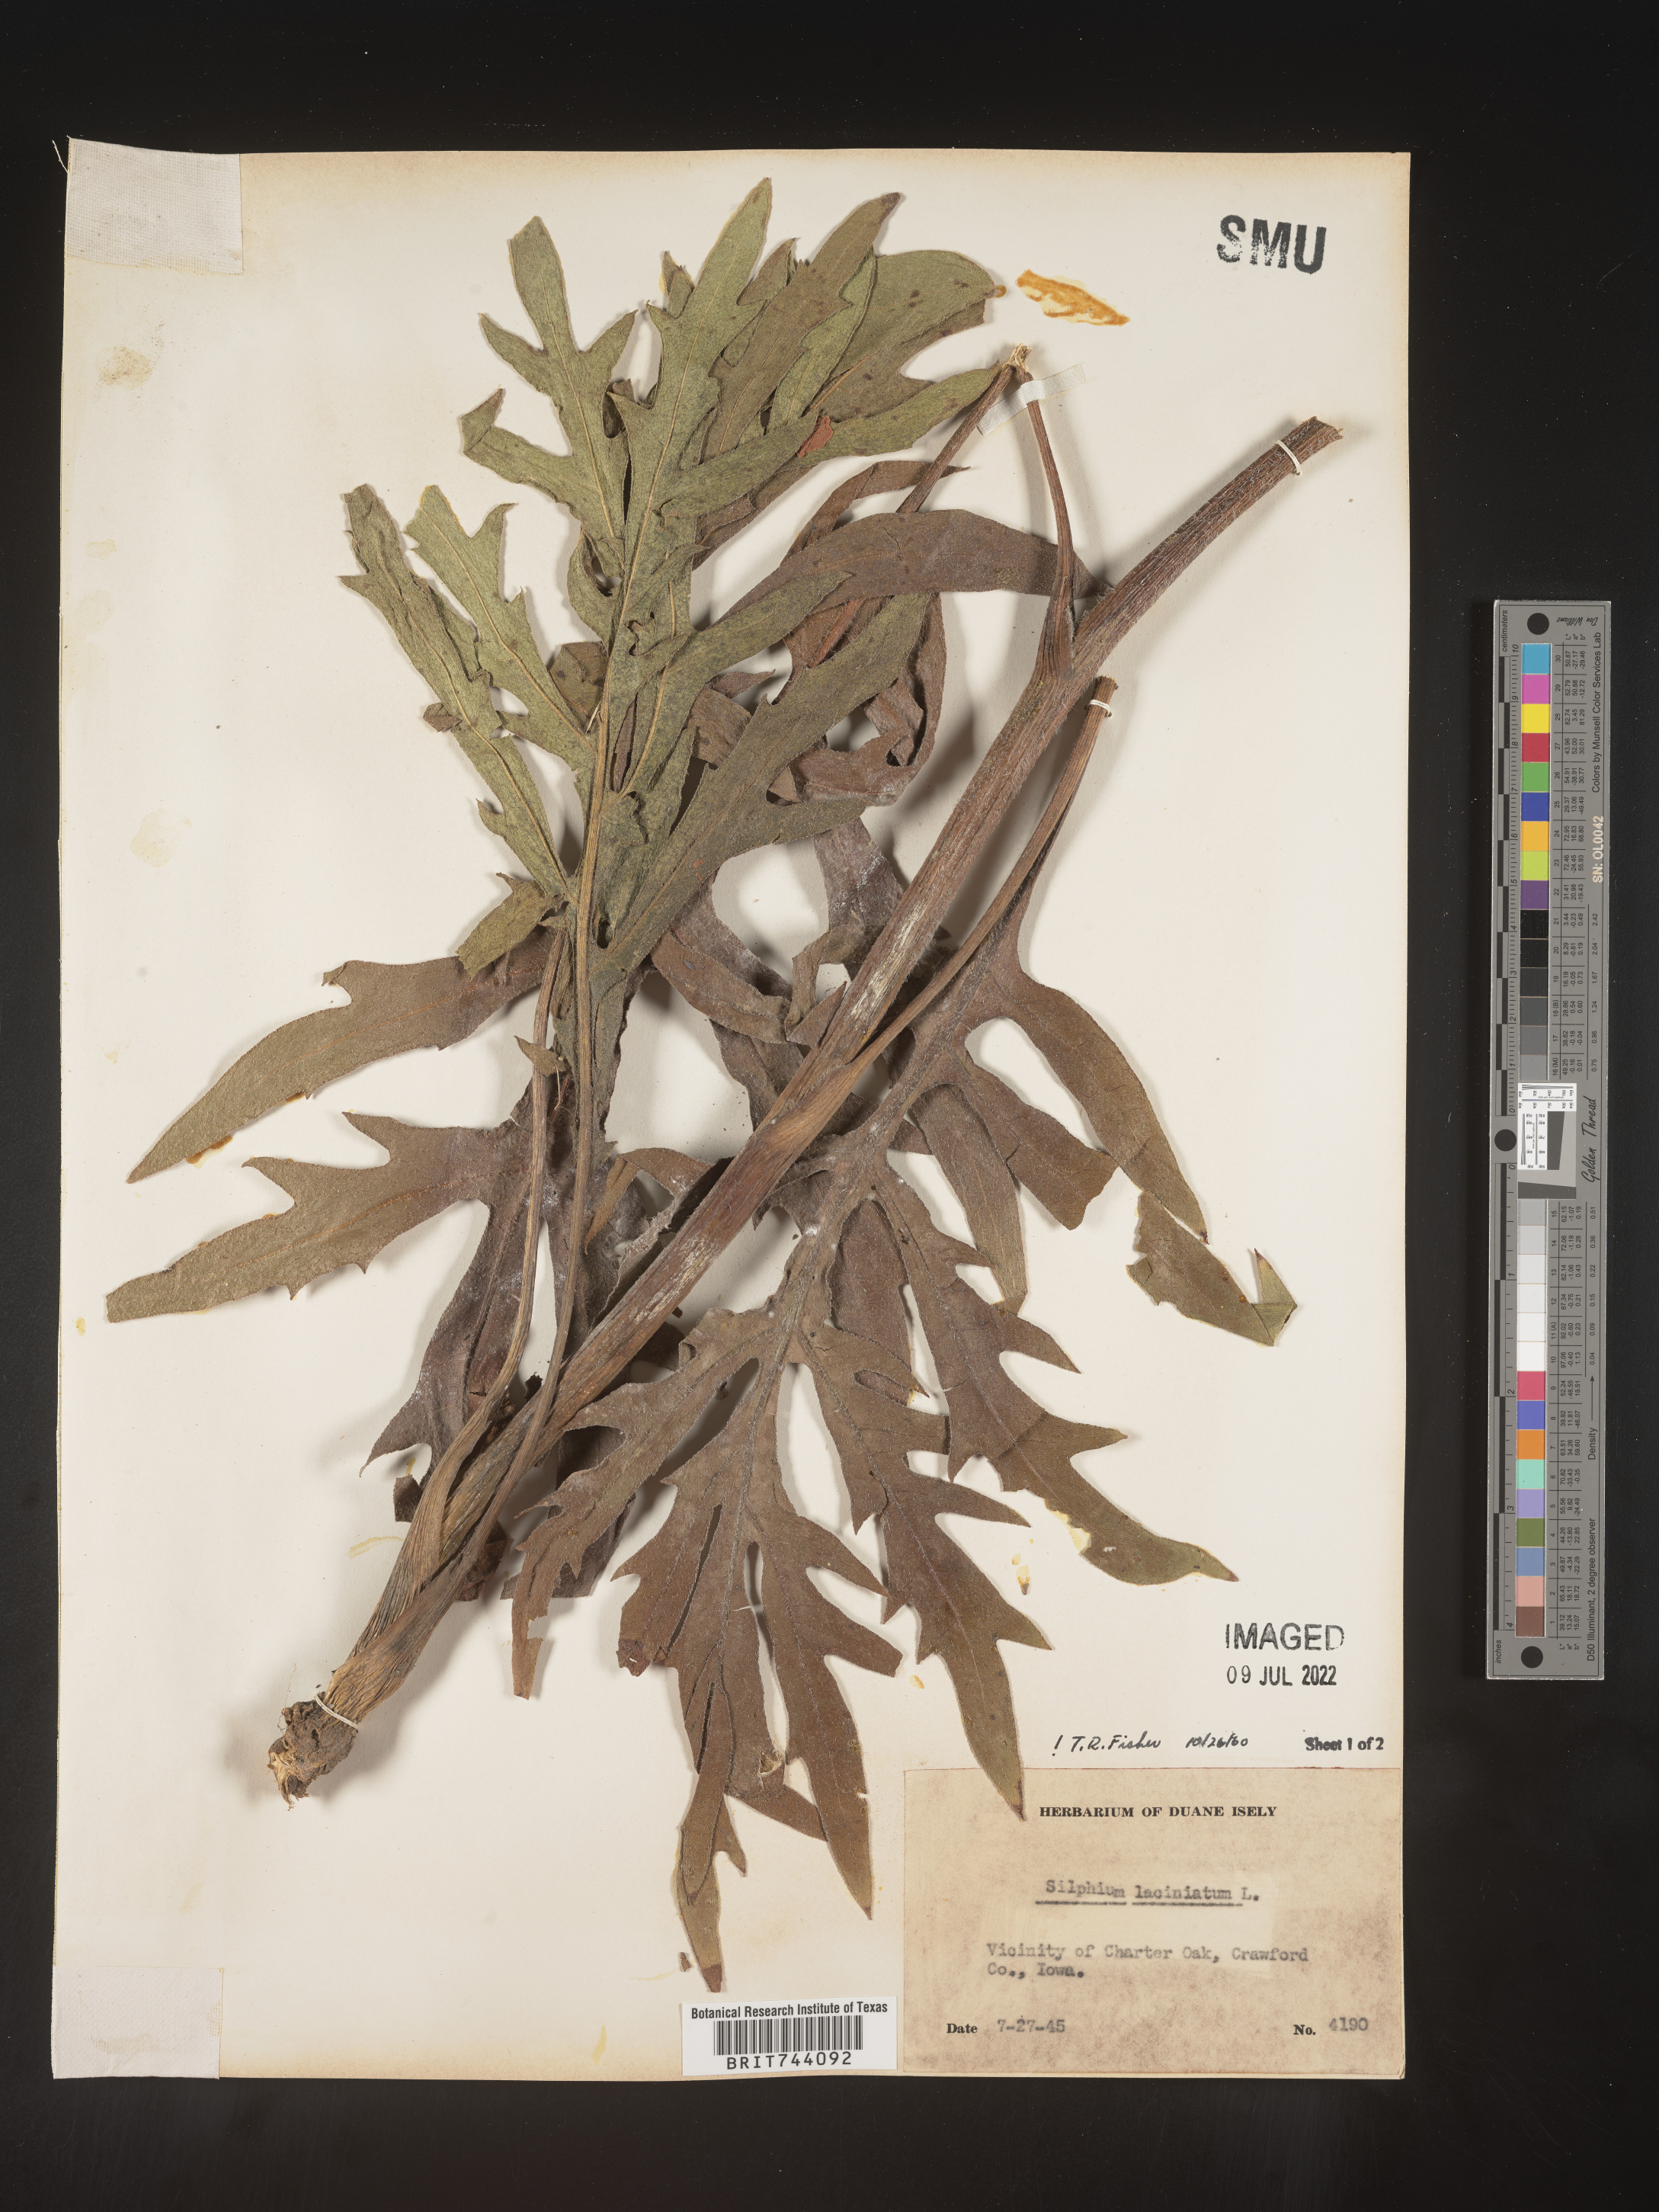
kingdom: Plantae
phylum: Tracheophyta
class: Magnoliopsida
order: Asterales
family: Asteraceae
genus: Silphium
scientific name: Silphium laciniatum
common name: Polarplant
